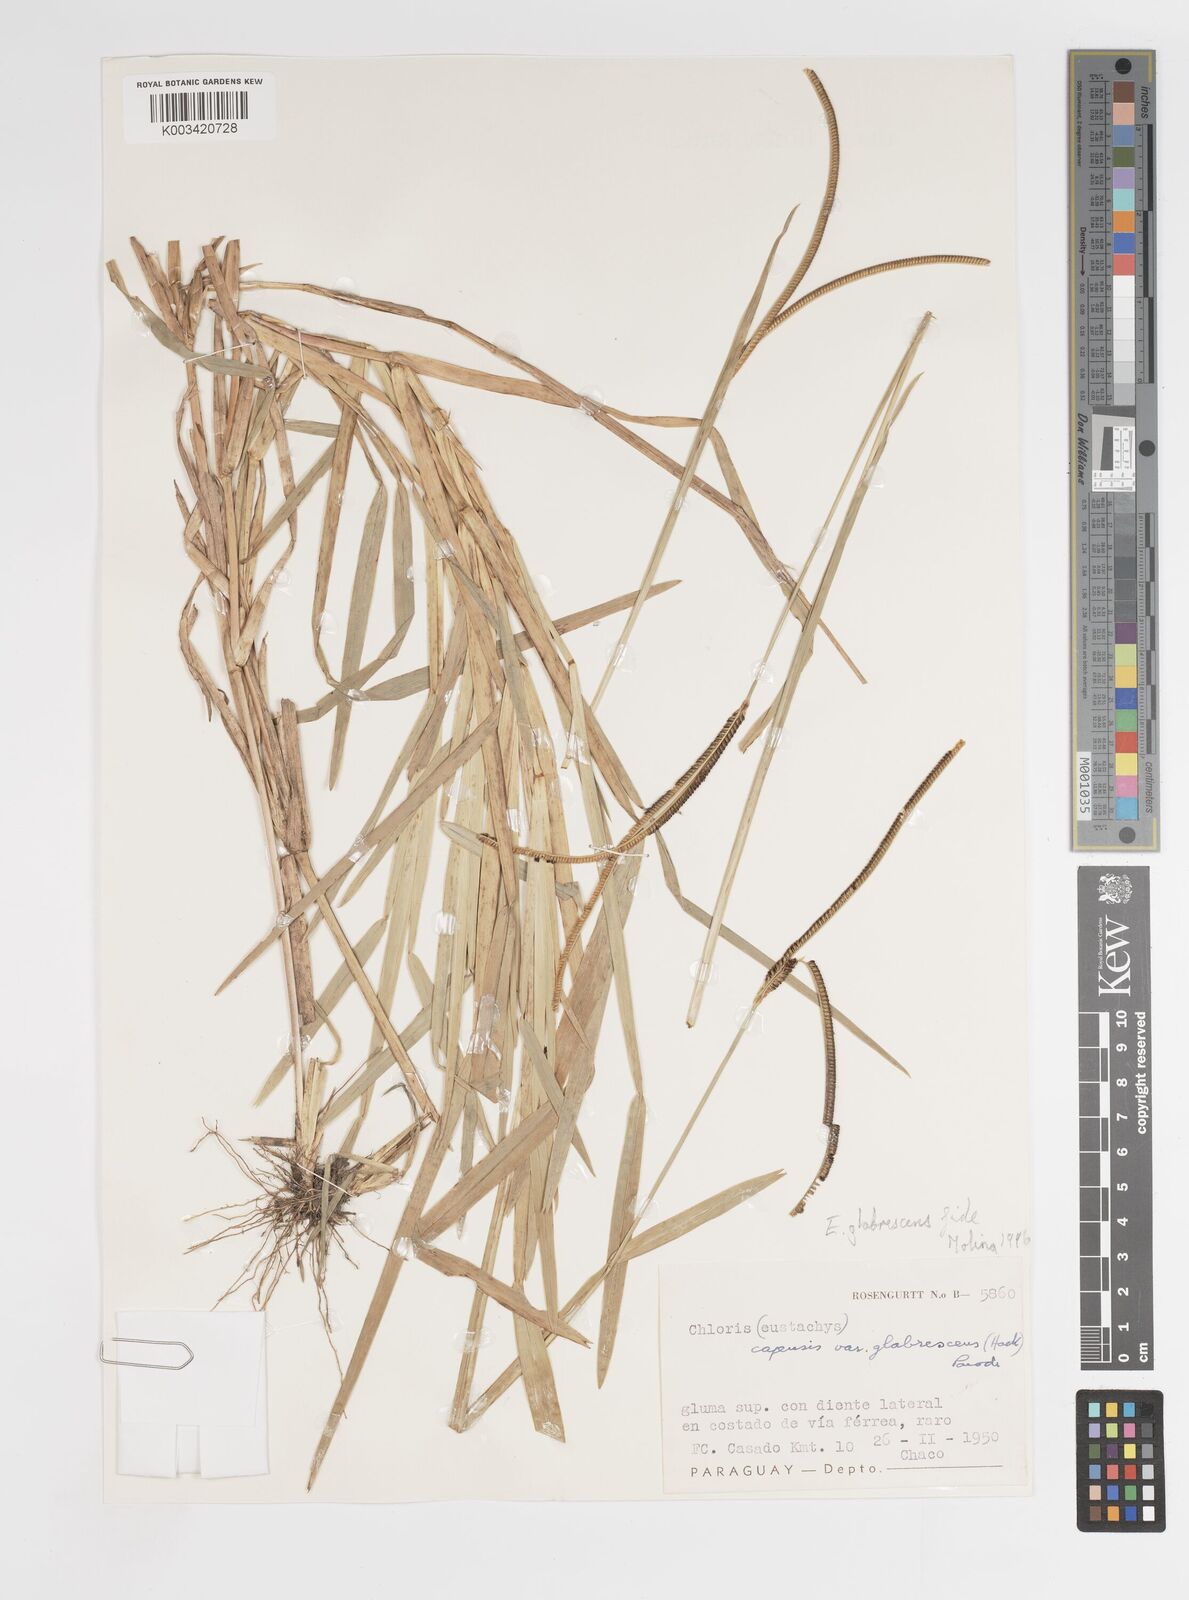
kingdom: Plantae
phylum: Tracheophyta
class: Liliopsida
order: Poales
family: Poaceae
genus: Eustachys
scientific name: Eustachys caribaea
